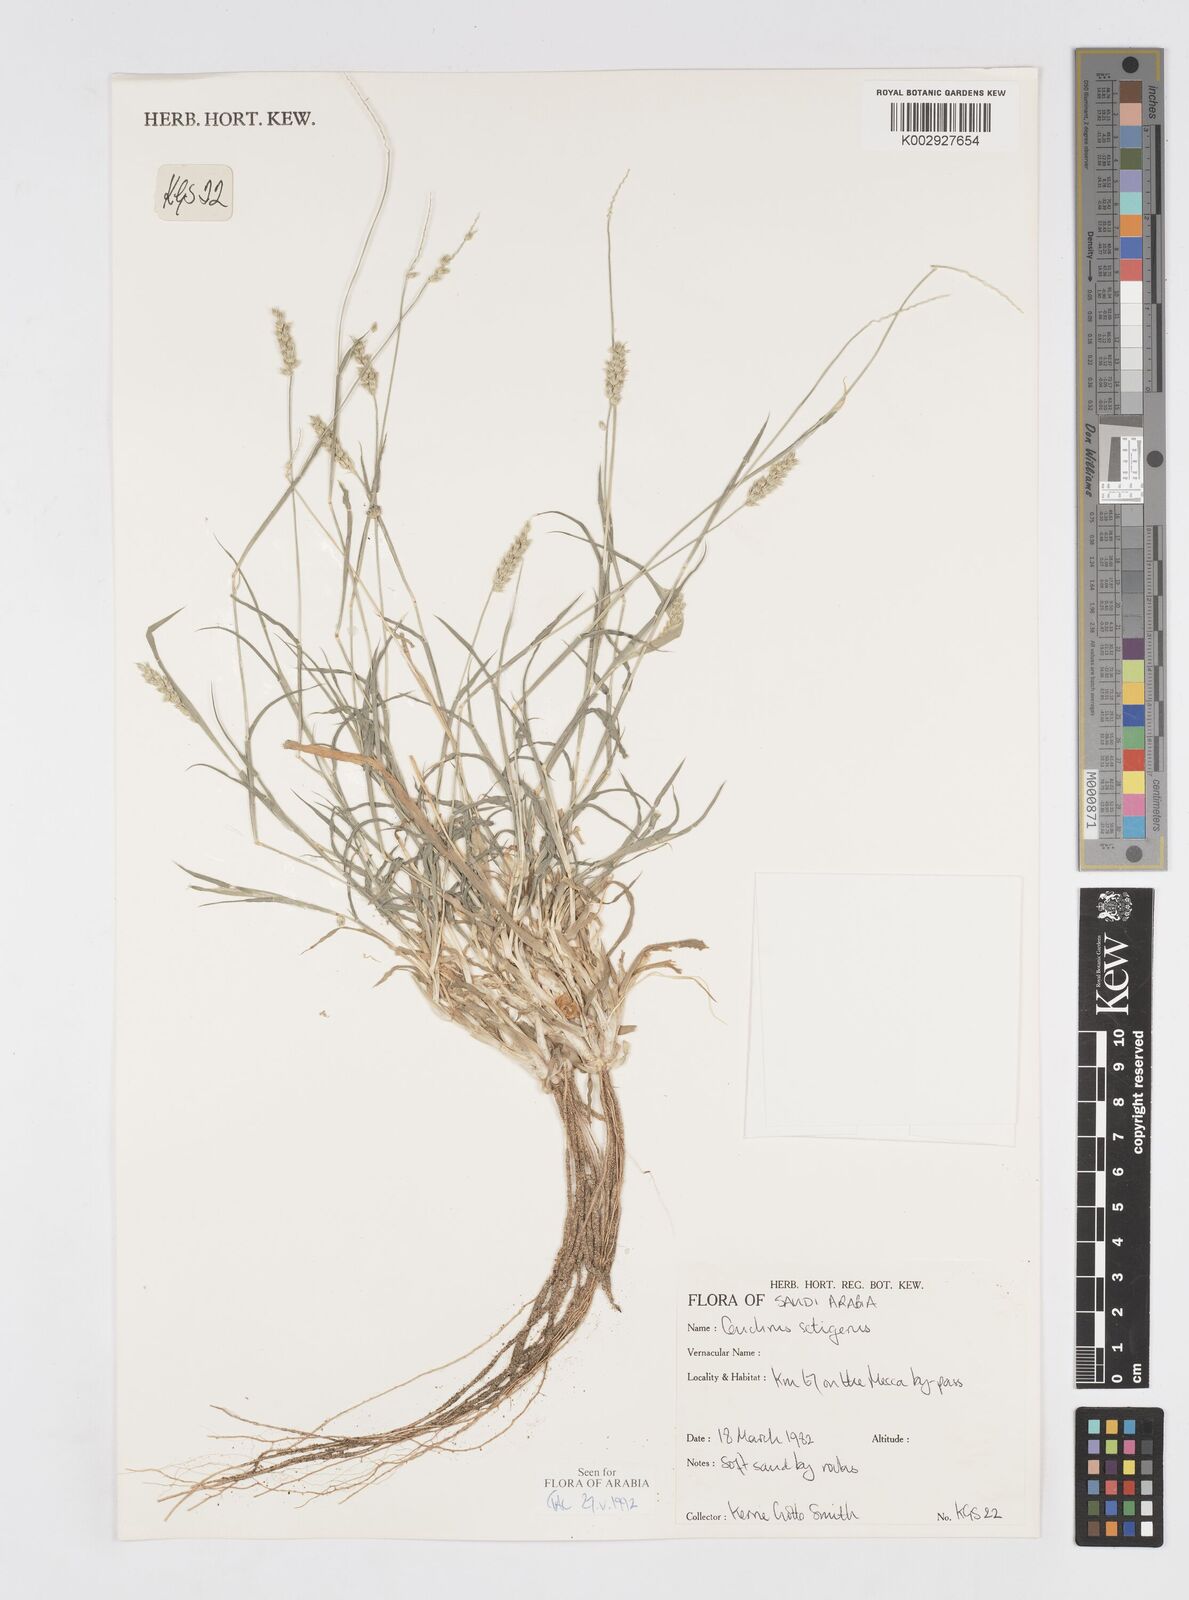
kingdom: Plantae
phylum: Tracheophyta
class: Liliopsida
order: Poales
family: Poaceae
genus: Cenchrus
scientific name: Cenchrus setigerus
